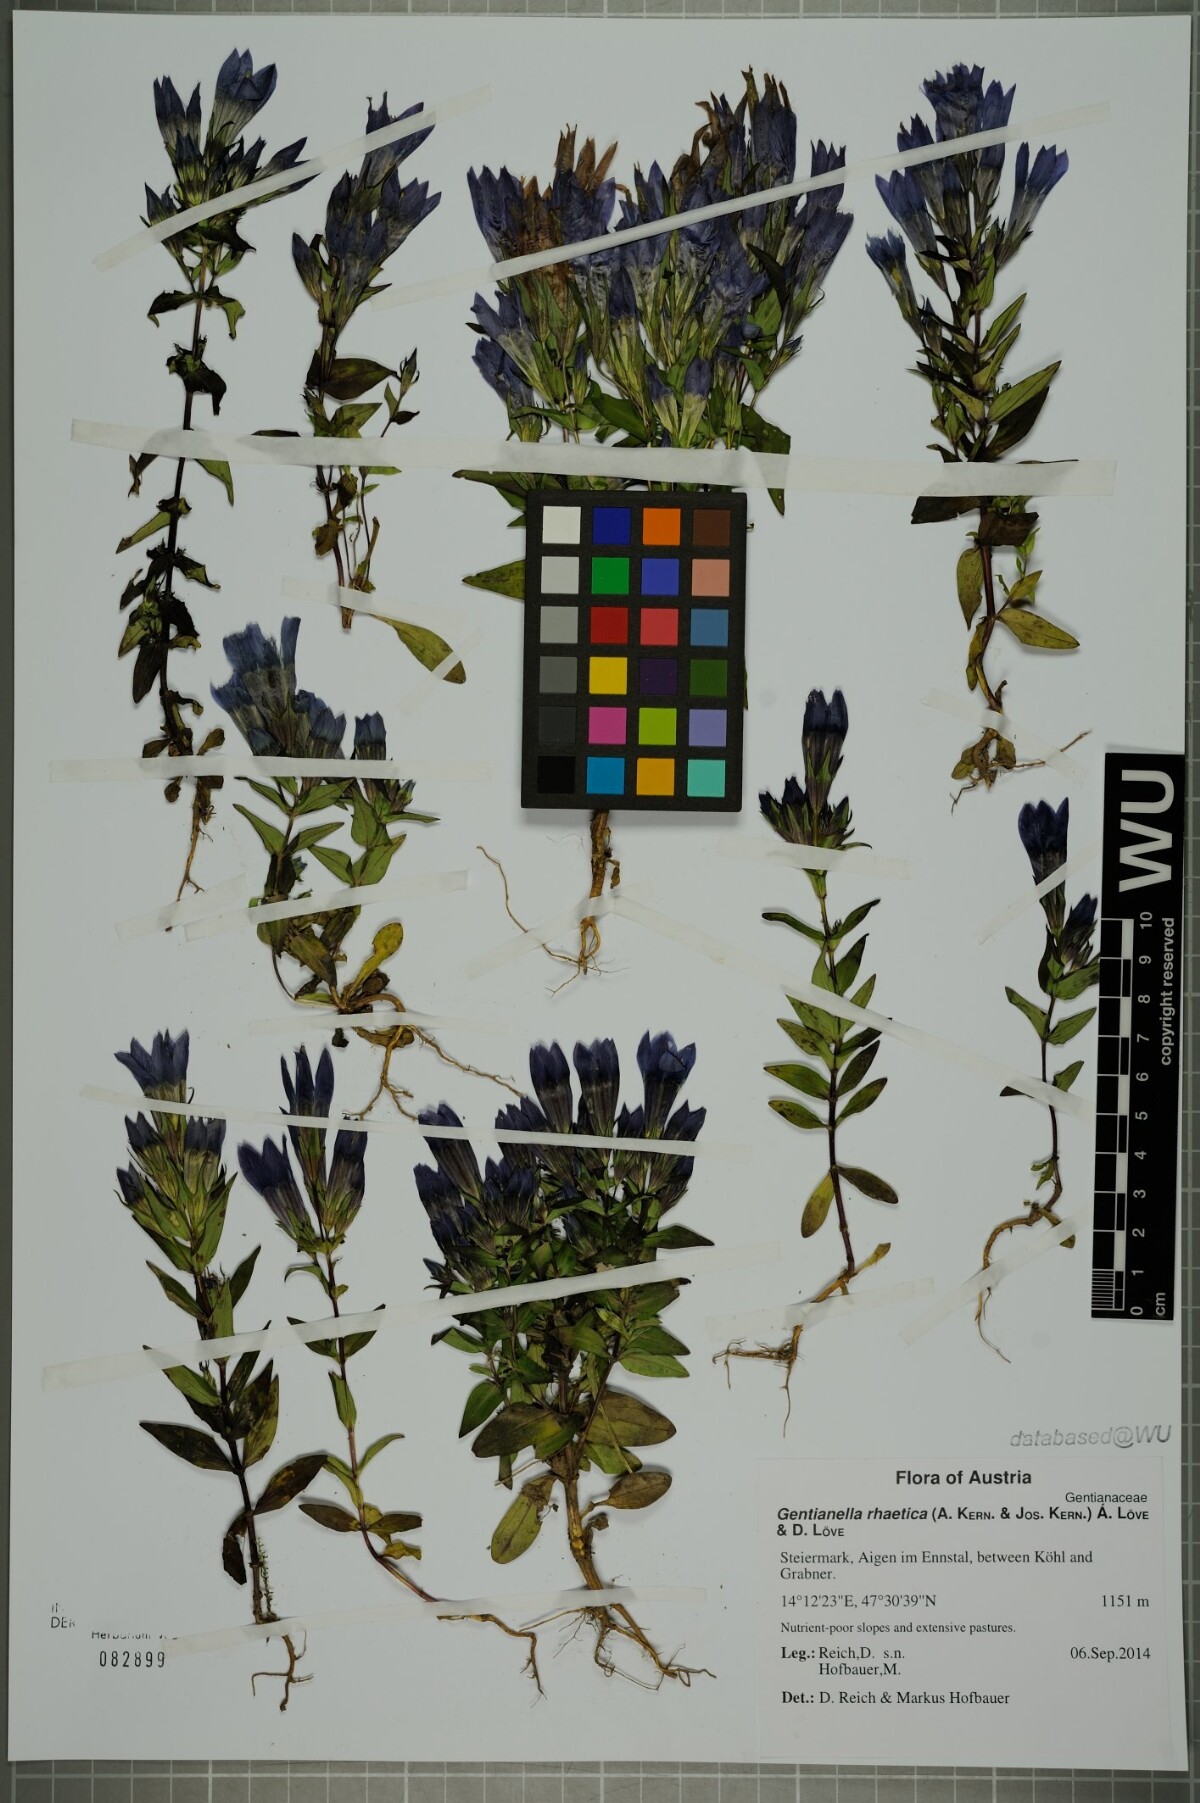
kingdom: Plantae
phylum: Tracheophyta
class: Magnoliopsida
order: Gentianales
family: Gentianaceae
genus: Gentianella
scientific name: Gentianella rhaetica
